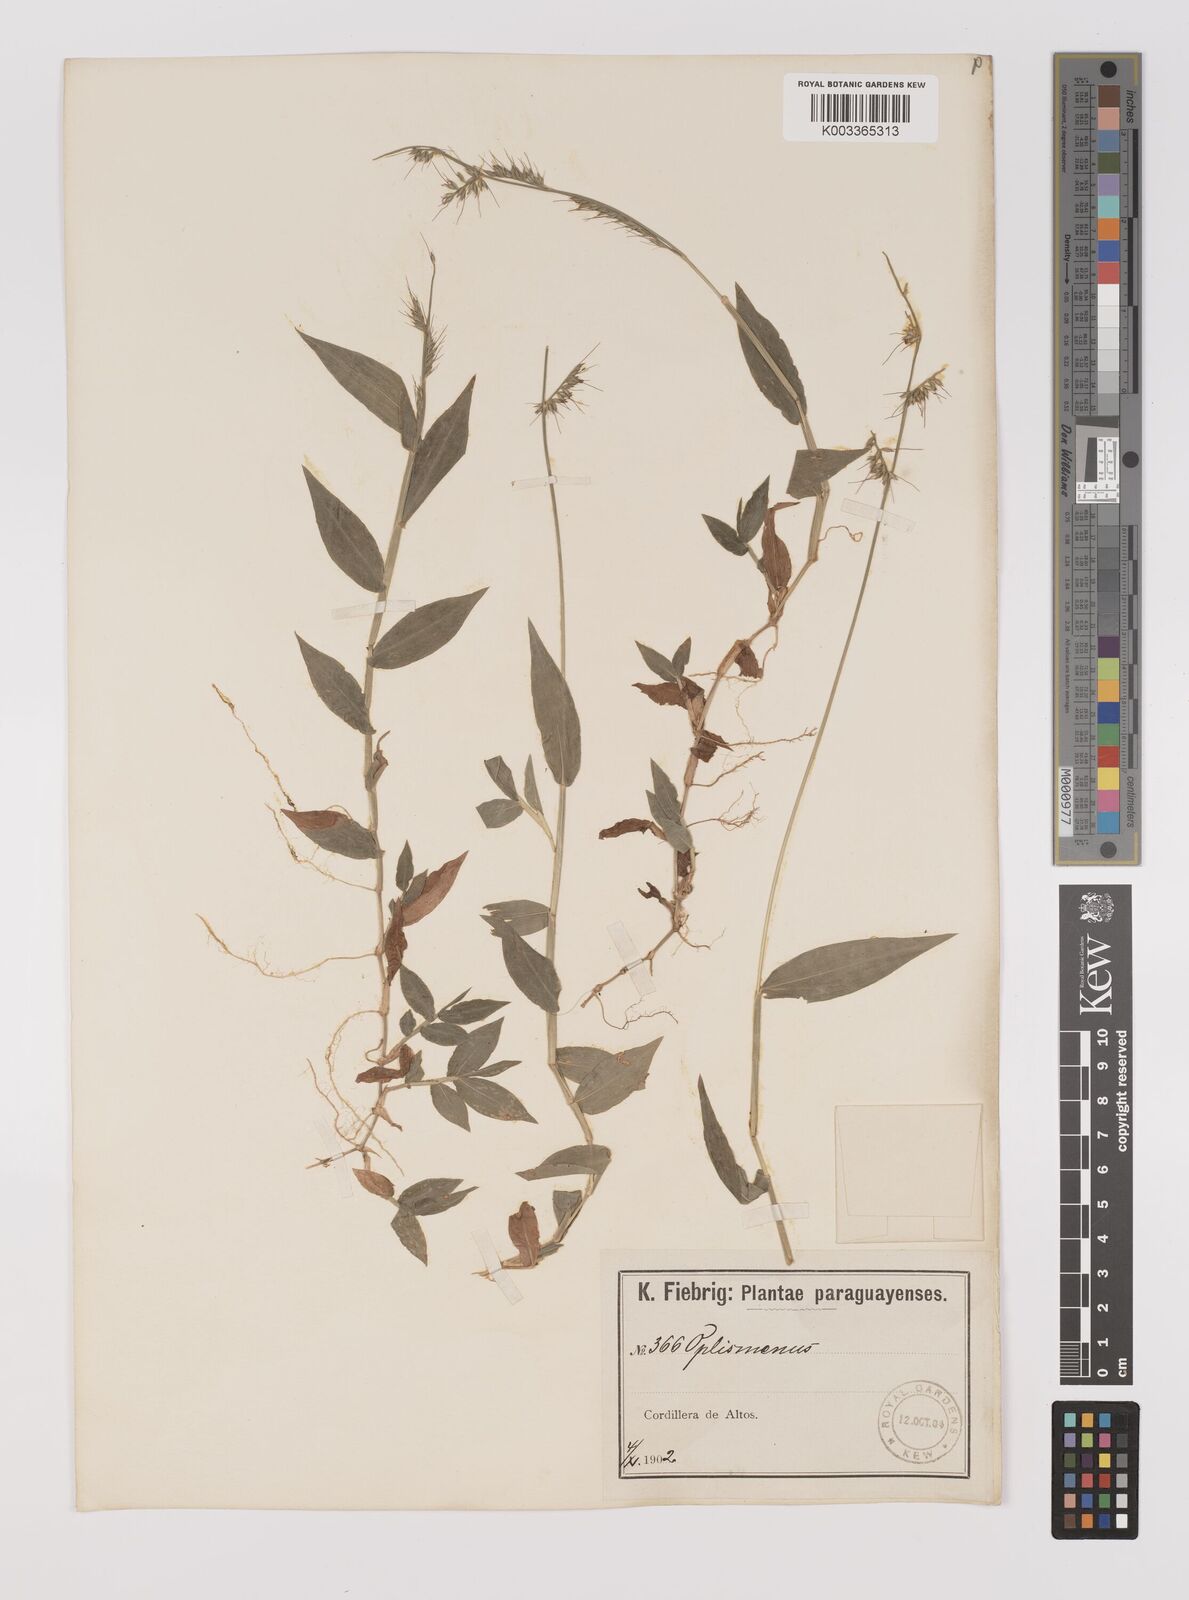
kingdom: Plantae
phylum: Tracheophyta
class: Liliopsida
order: Poales
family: Poaceae
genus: Oplismenus
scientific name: Oplismenus hirtellus
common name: Basketgrass
